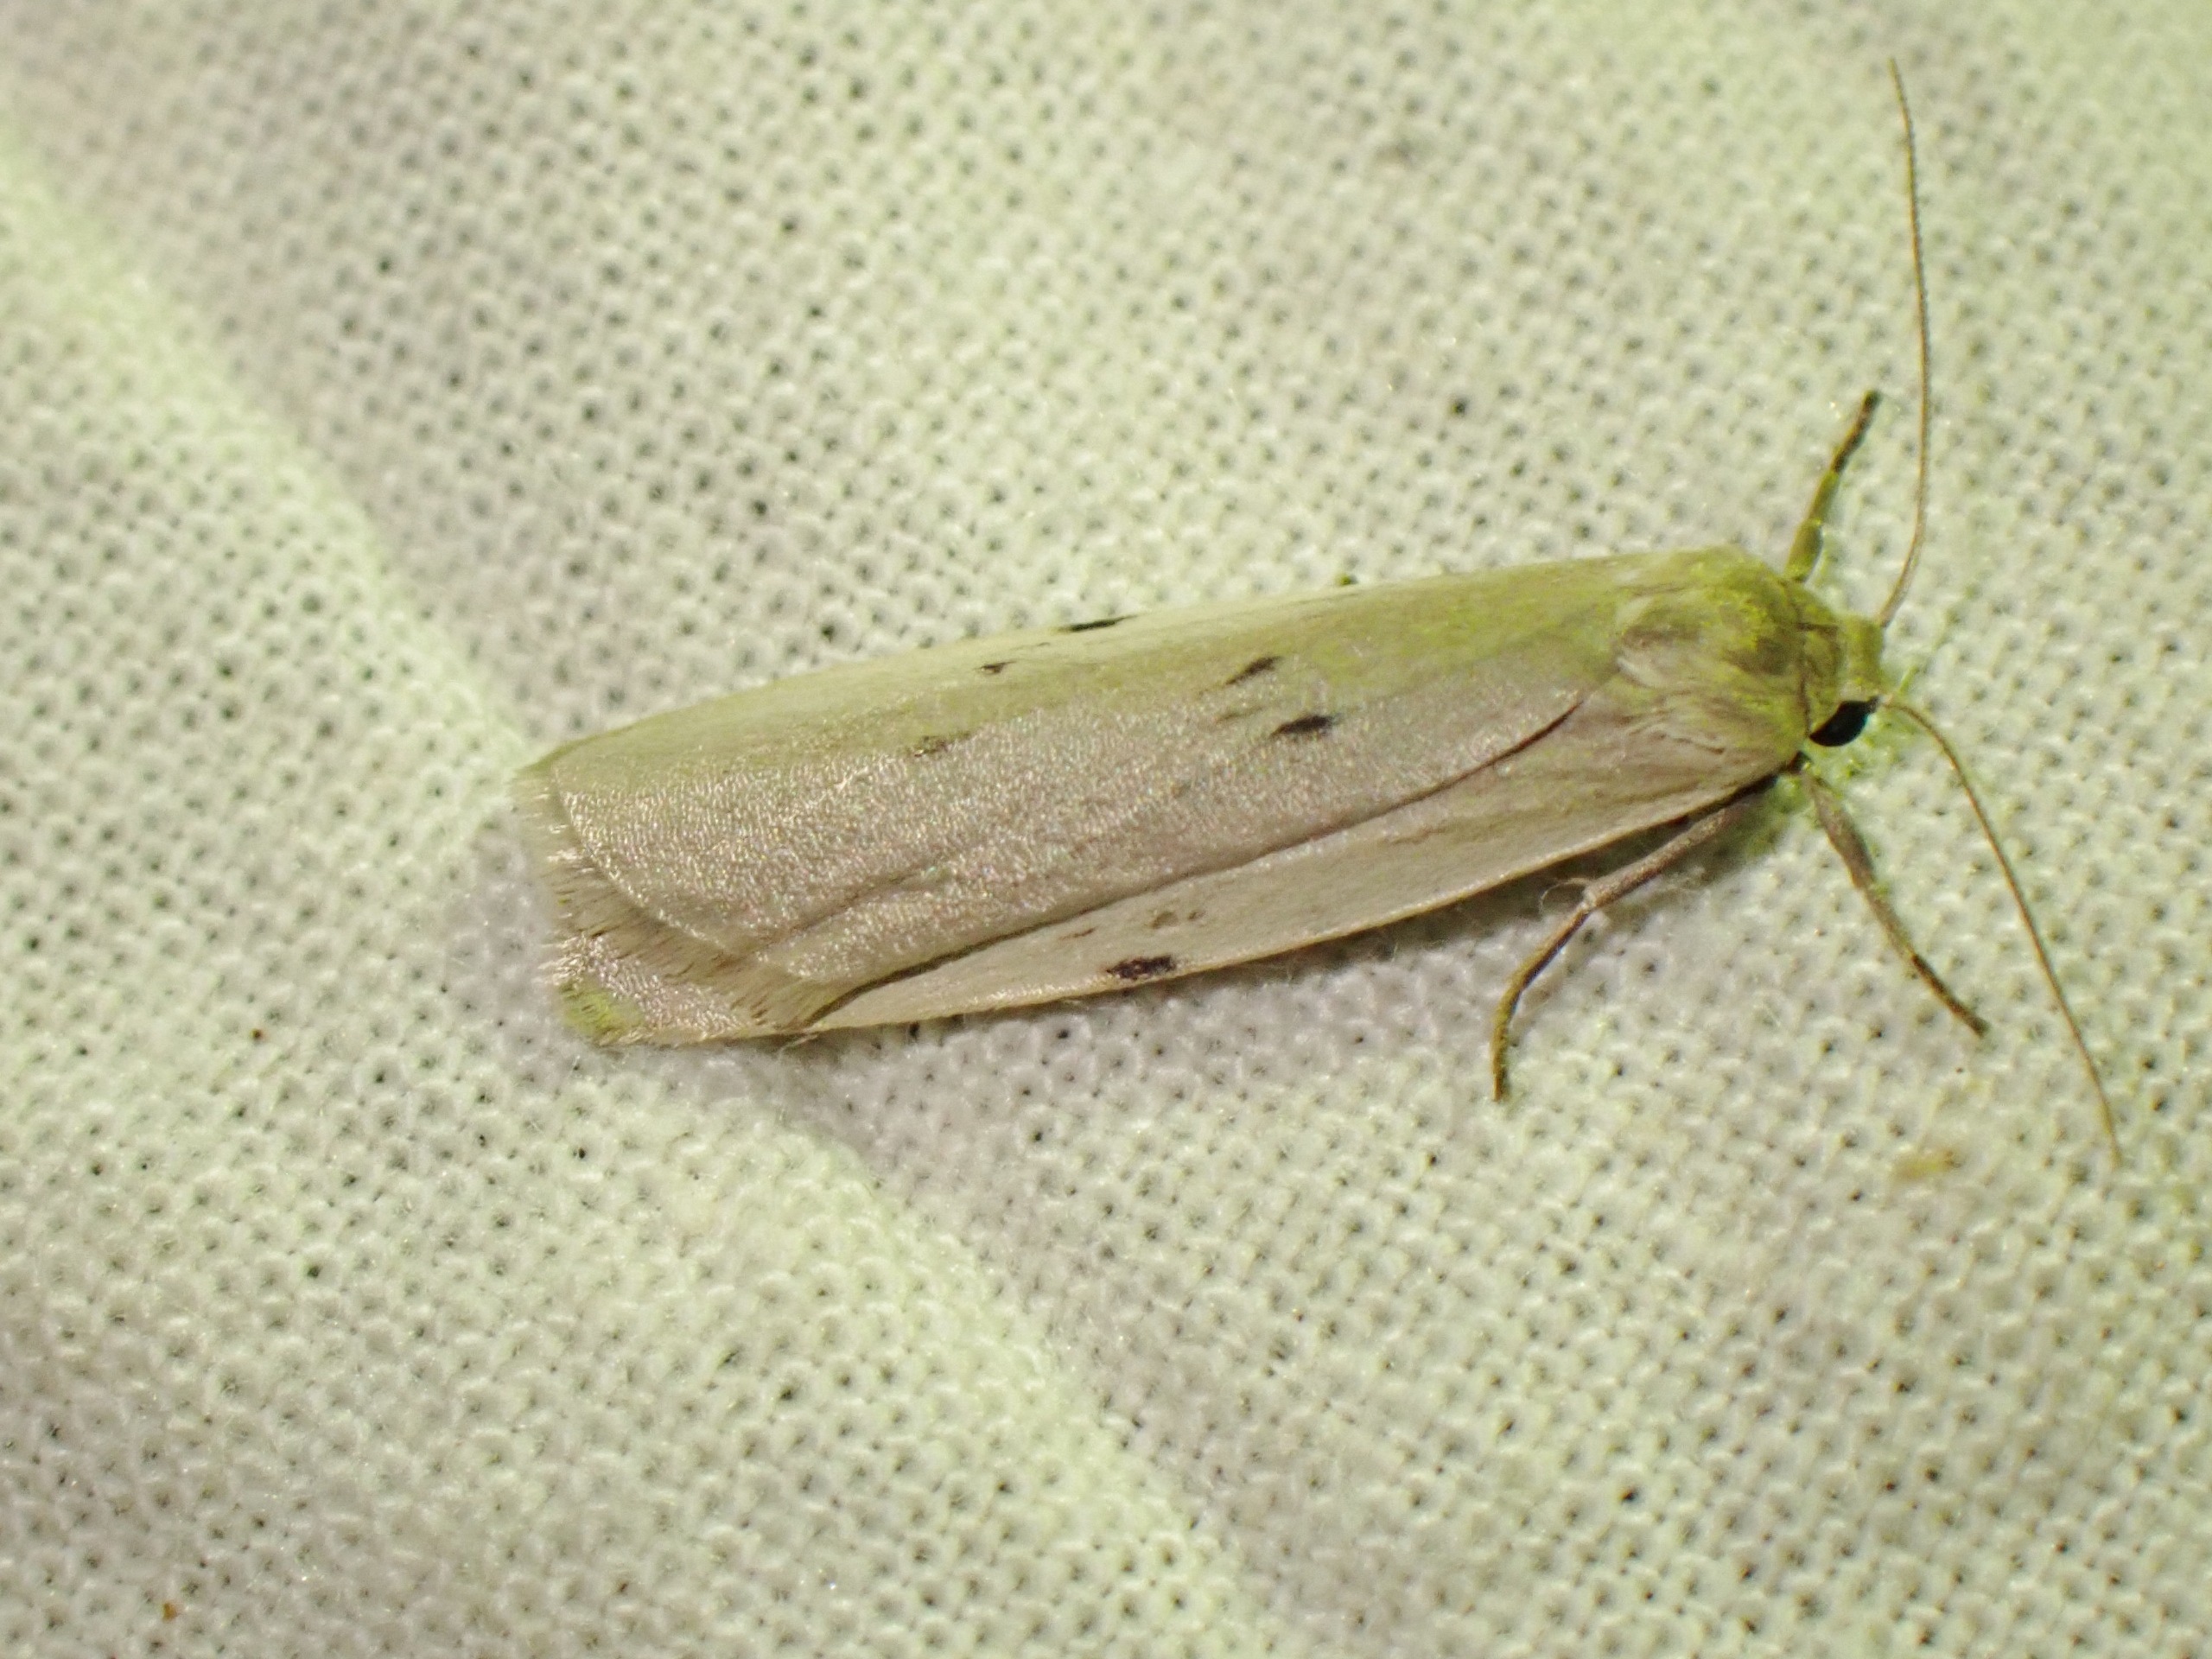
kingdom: Animalia
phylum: Arthropoda
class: Insecta
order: Lepidoptera
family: Erebidae
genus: Pelosia
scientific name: Pelosia muscerda
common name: Prikket lavspinder
